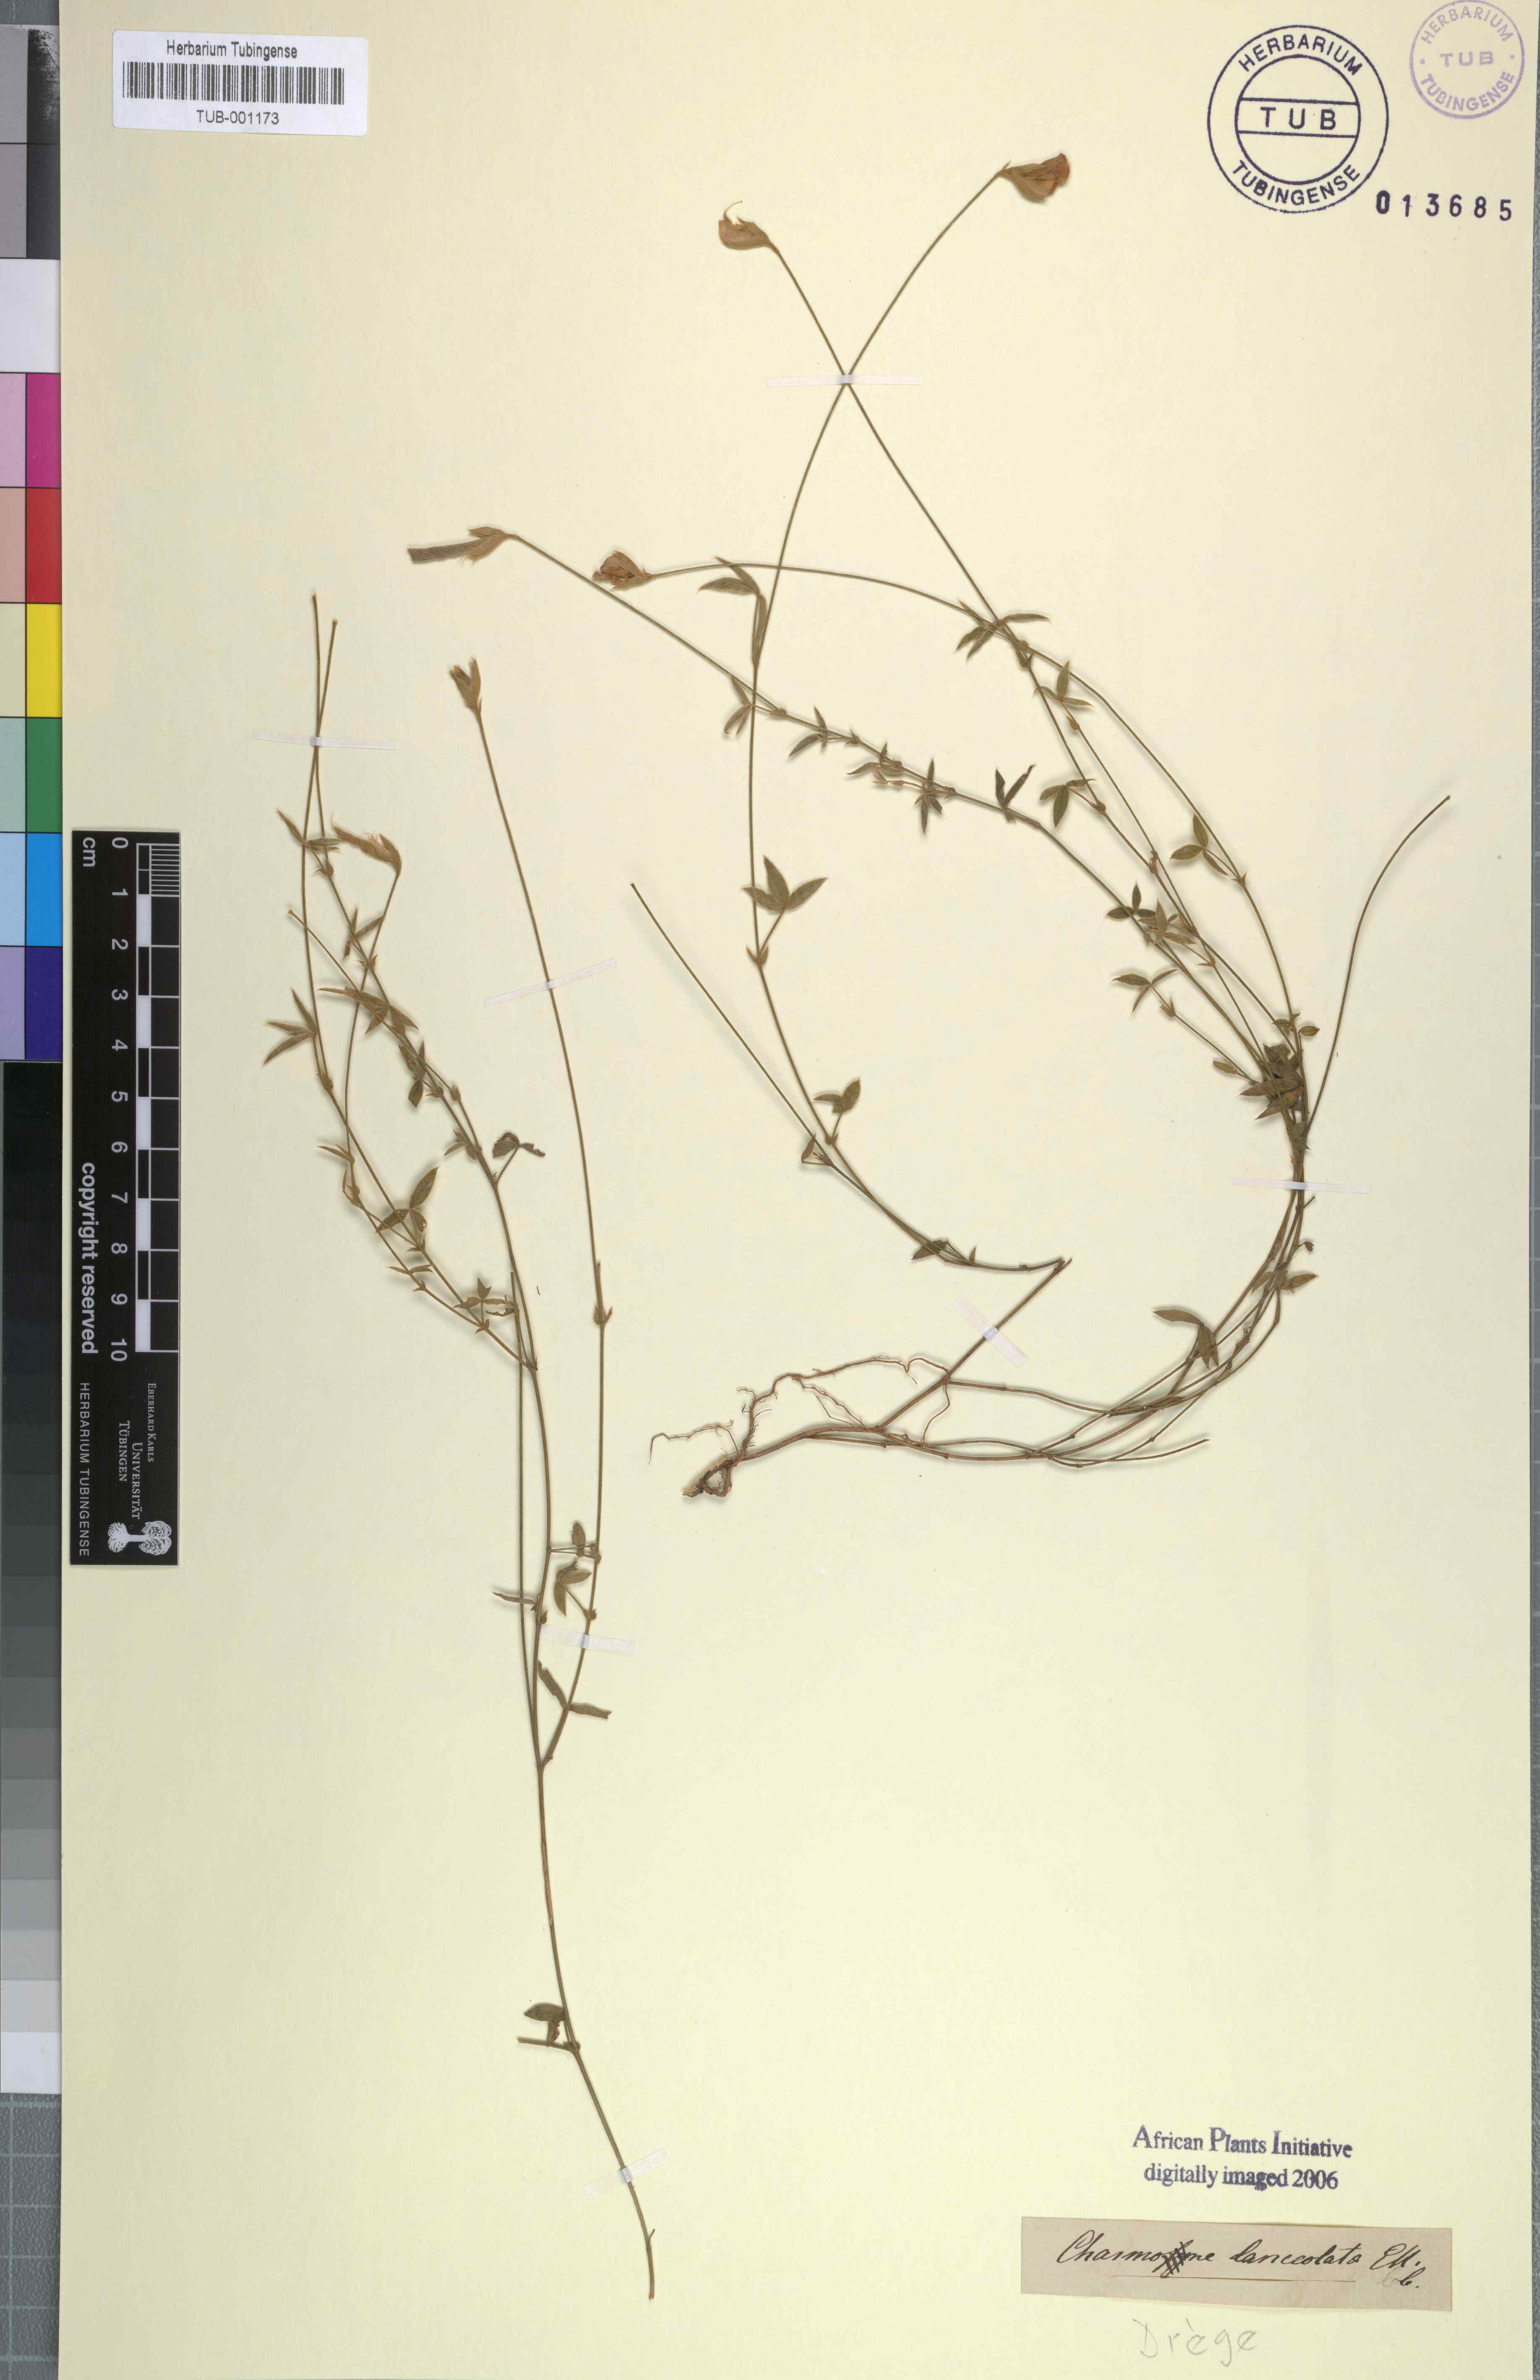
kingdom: Plantae
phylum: Tracheophyta
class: Magnoliopsida
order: Fabales
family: Fabaceae
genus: Argyrolobium
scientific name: Argyrolobium lunare
